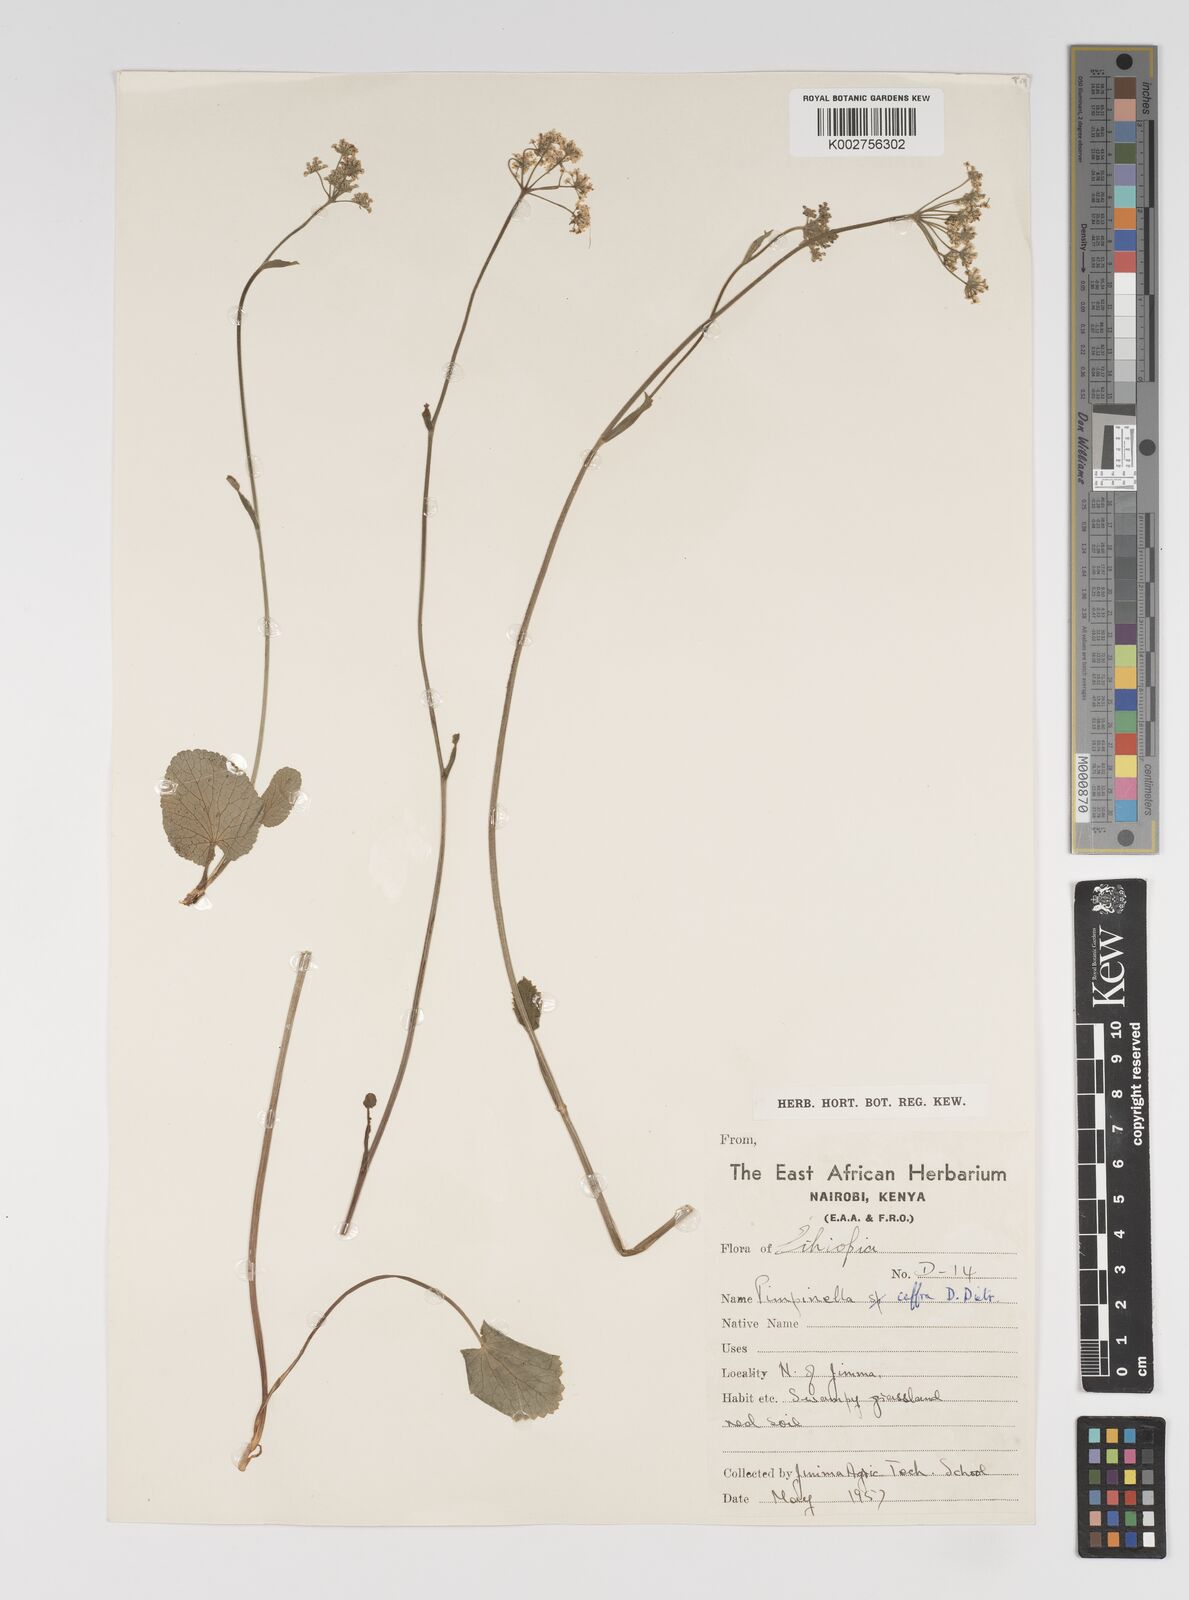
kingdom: Plantae
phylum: Tracheophyta
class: Magnoliopsida
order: Apiales
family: Apiaceae
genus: Pimpinella
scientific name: Pimpinella peregrina
